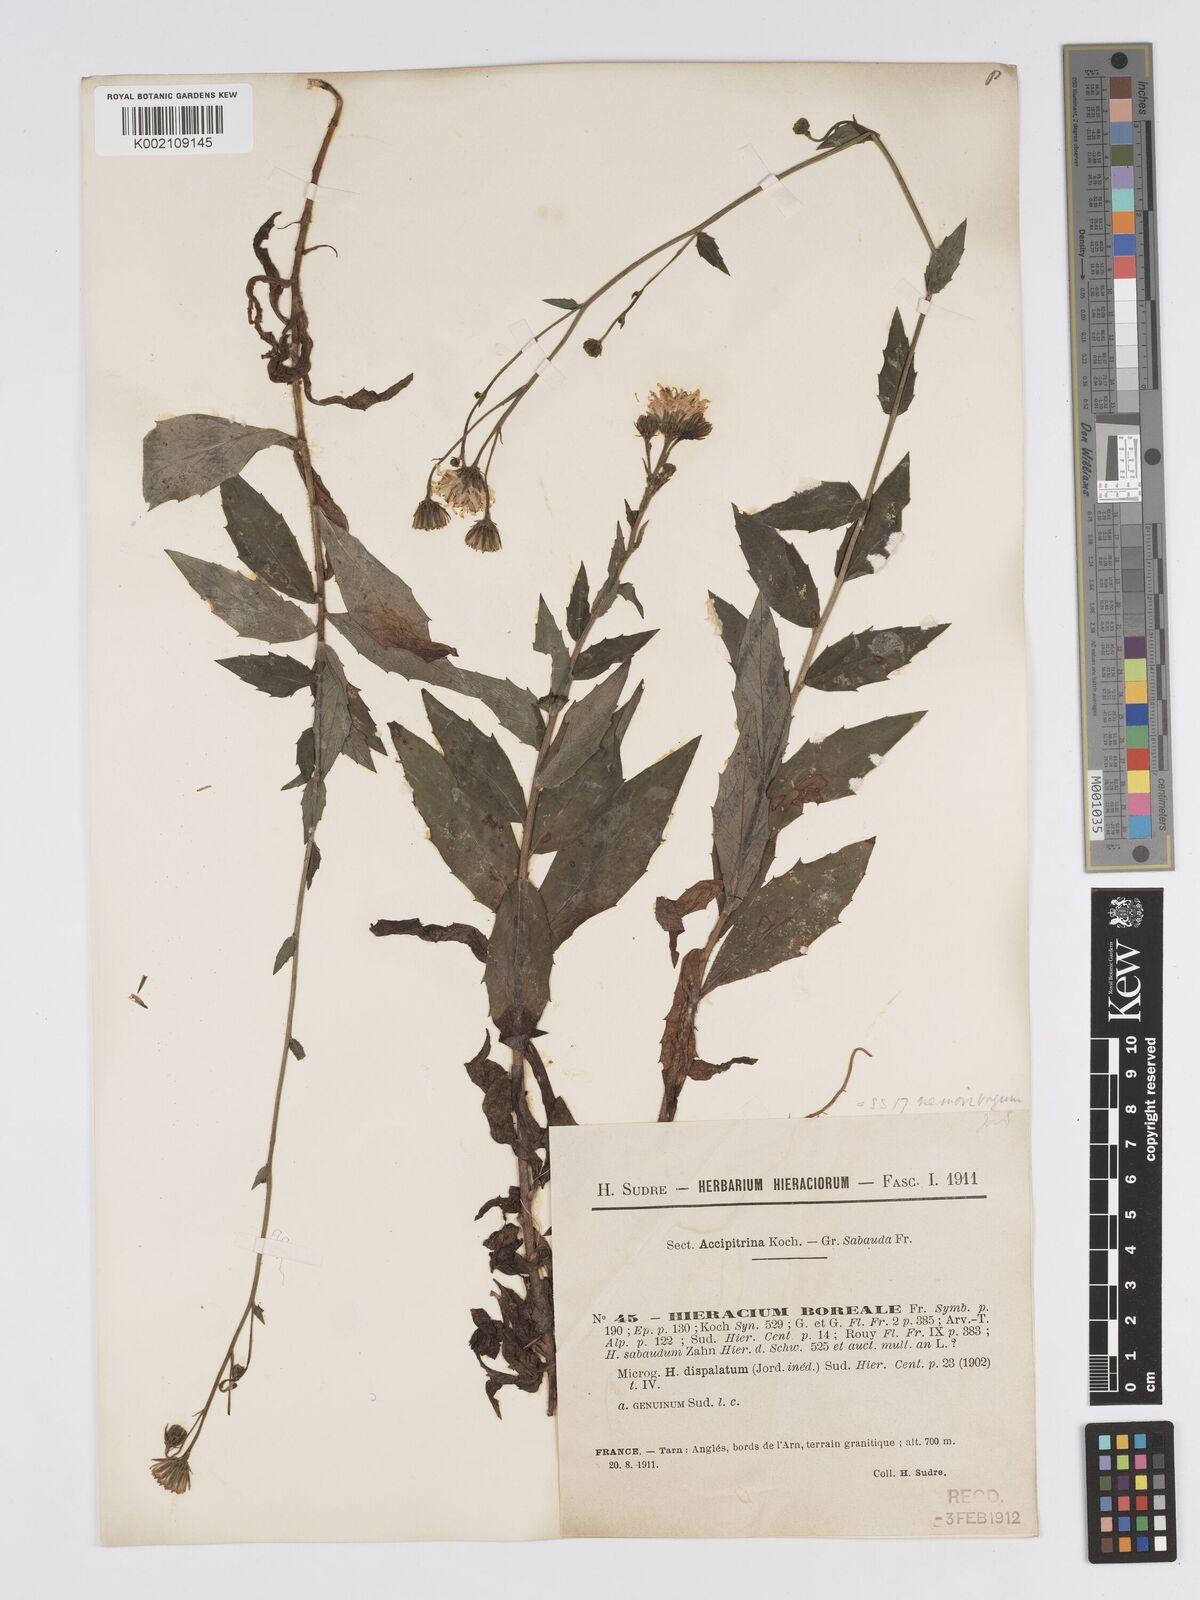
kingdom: Plantae
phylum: Tracheophyta
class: Magnoliopsida
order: Asterales
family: Asteraceae
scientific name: Asteraceae
